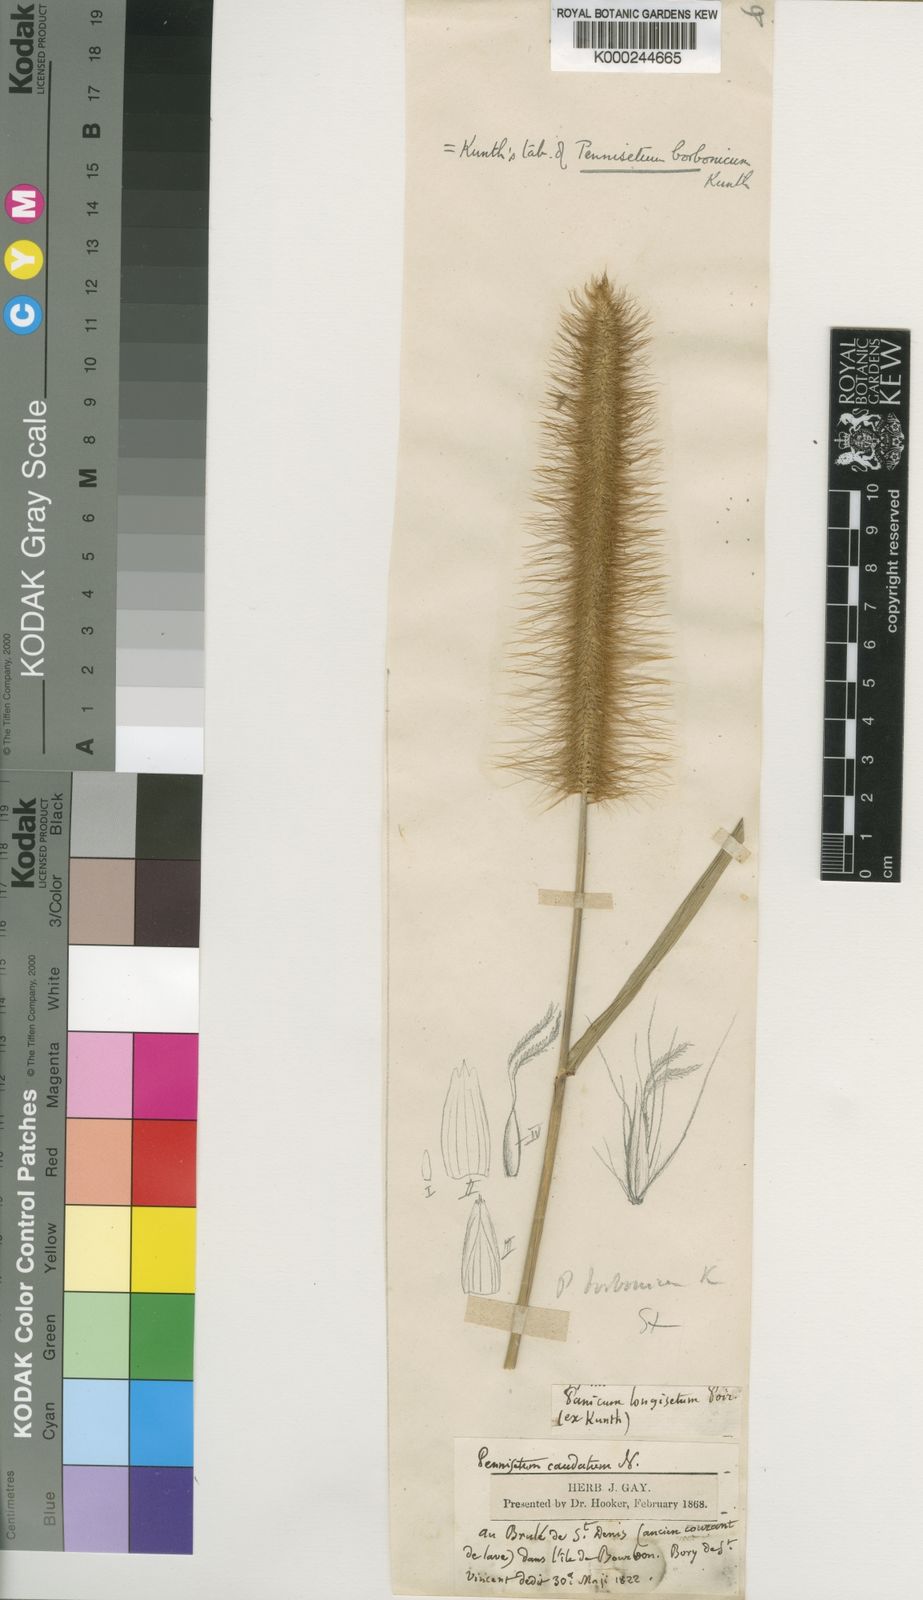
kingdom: Plantae
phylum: Tracheophyta
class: Liliopsida
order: Poales
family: Poaceae
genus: Setaria
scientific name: Setaria parviflora
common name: Knotroot bristle-grass
